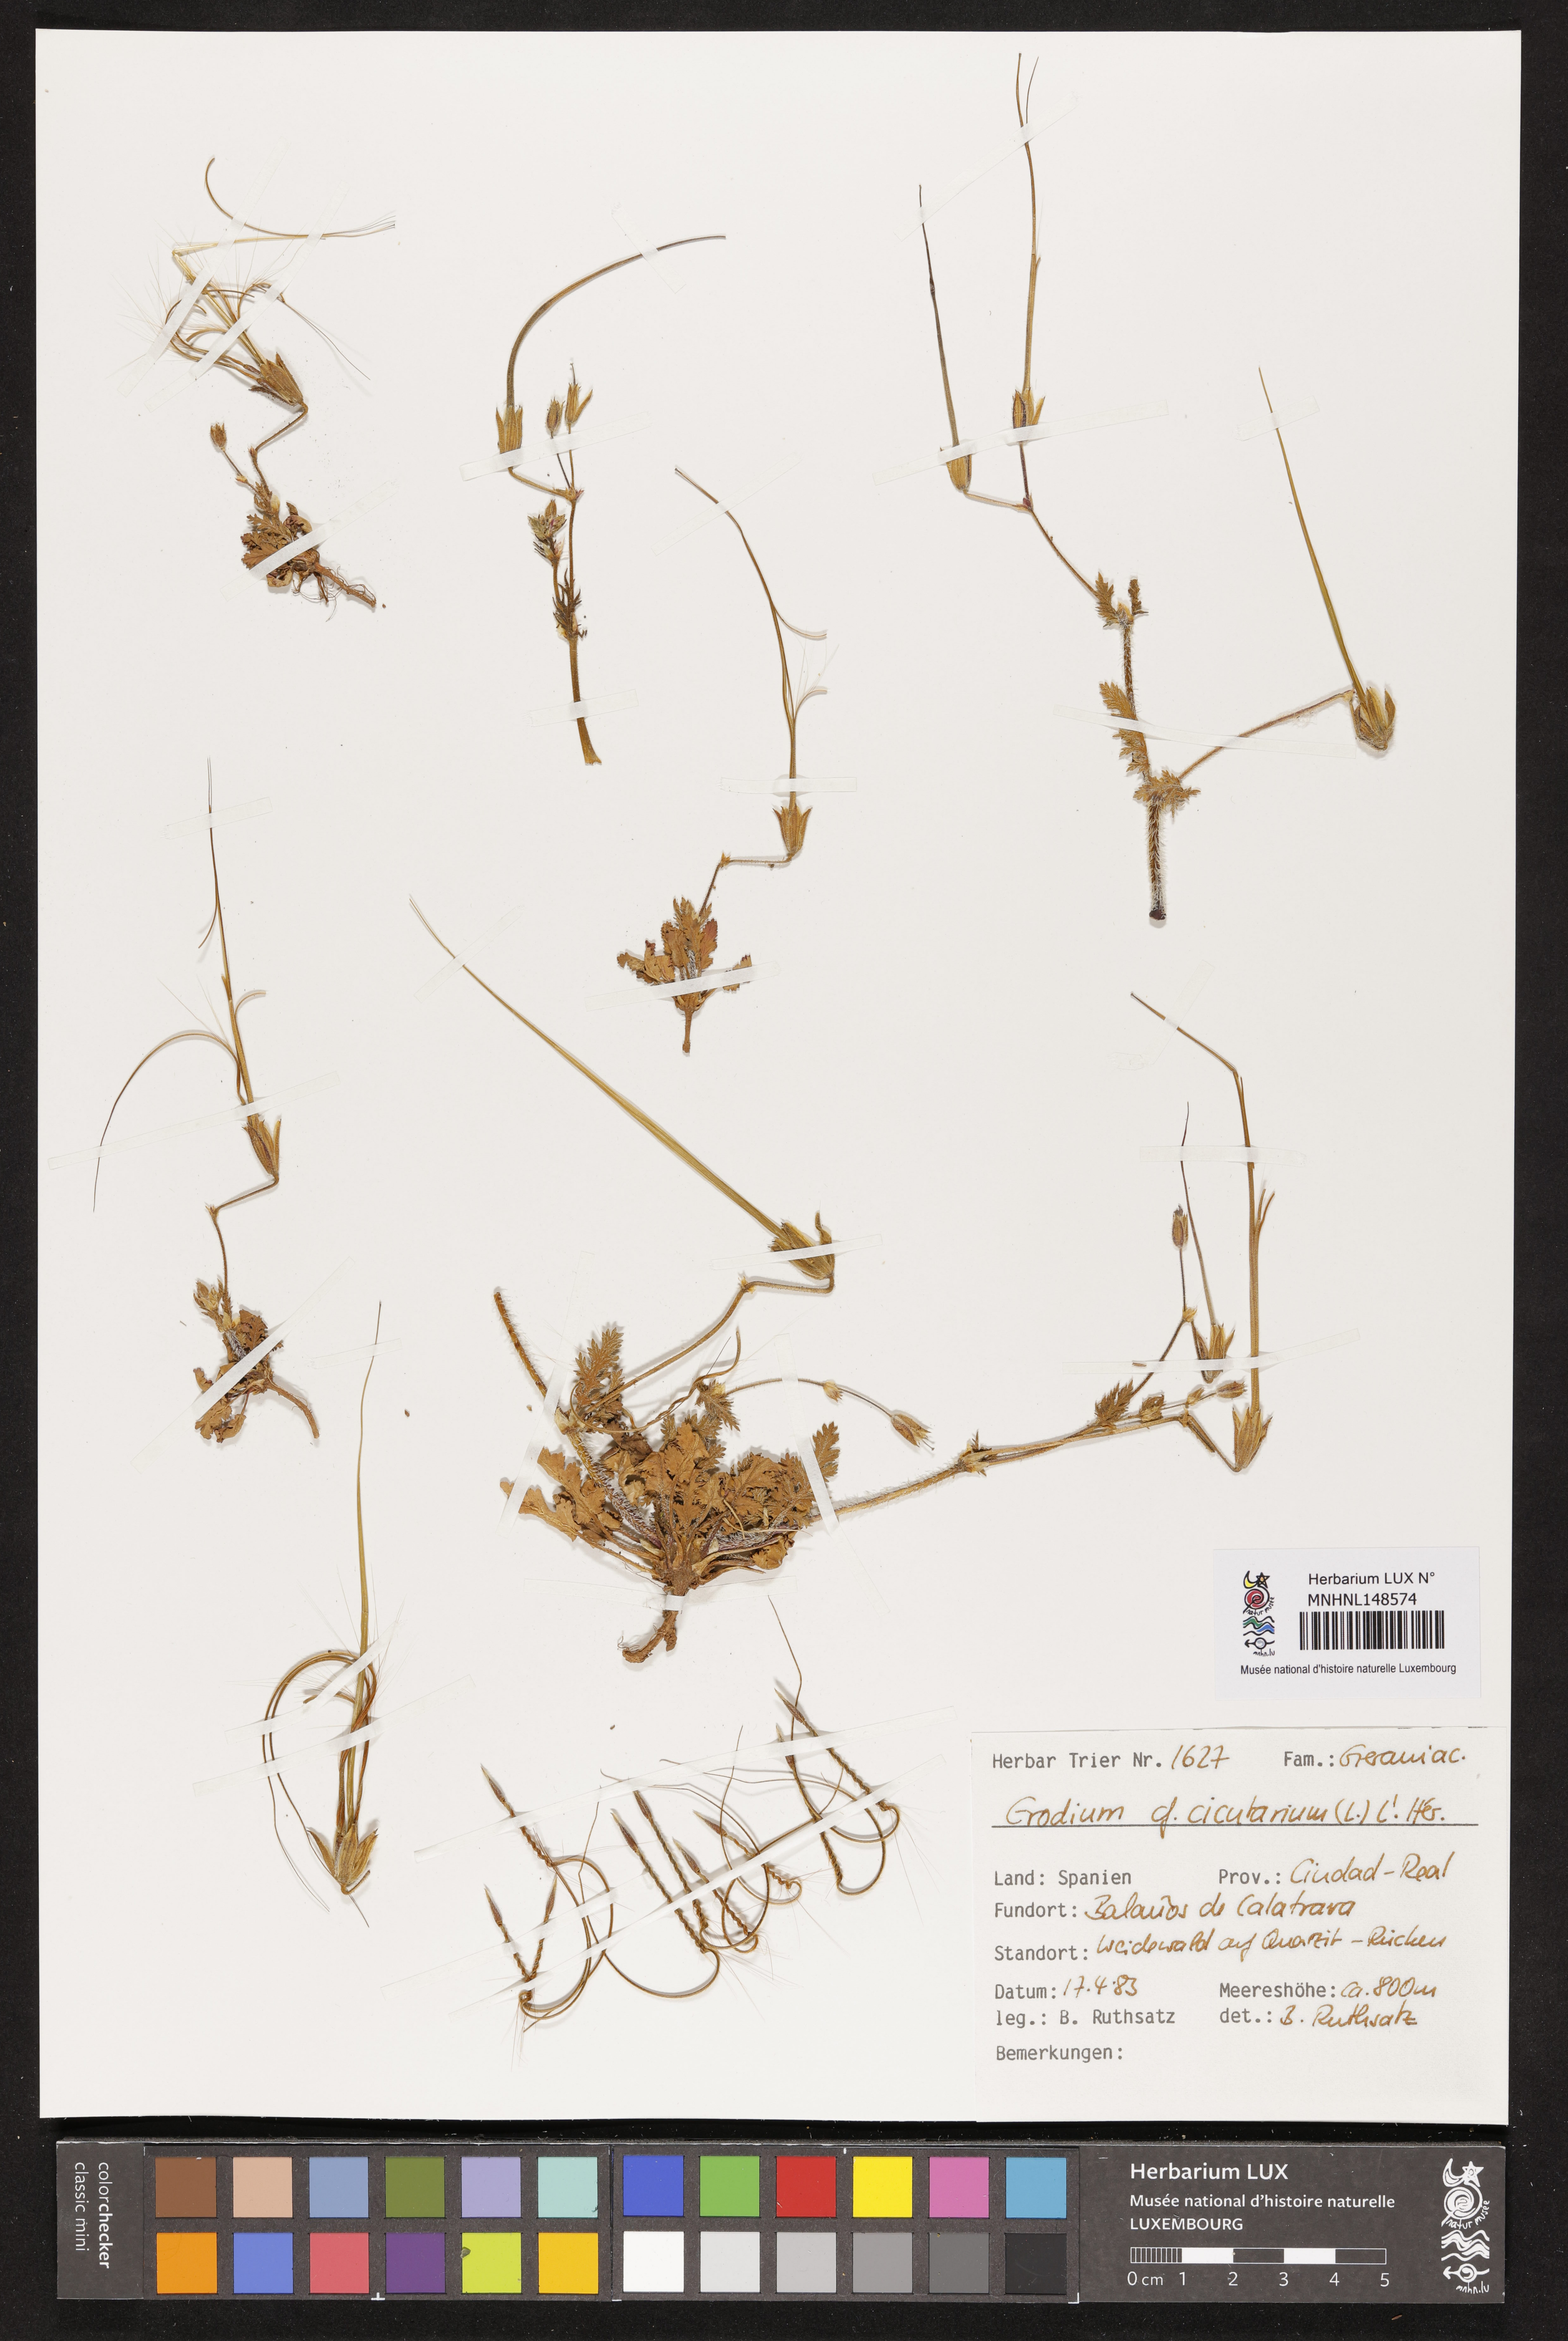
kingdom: Plantae
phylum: Tracheophyta
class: Magnoliopsida
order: Geraniales
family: Geraniaceae
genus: Erodium
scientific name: Erodium cicutarium
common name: Common stork's-bill
